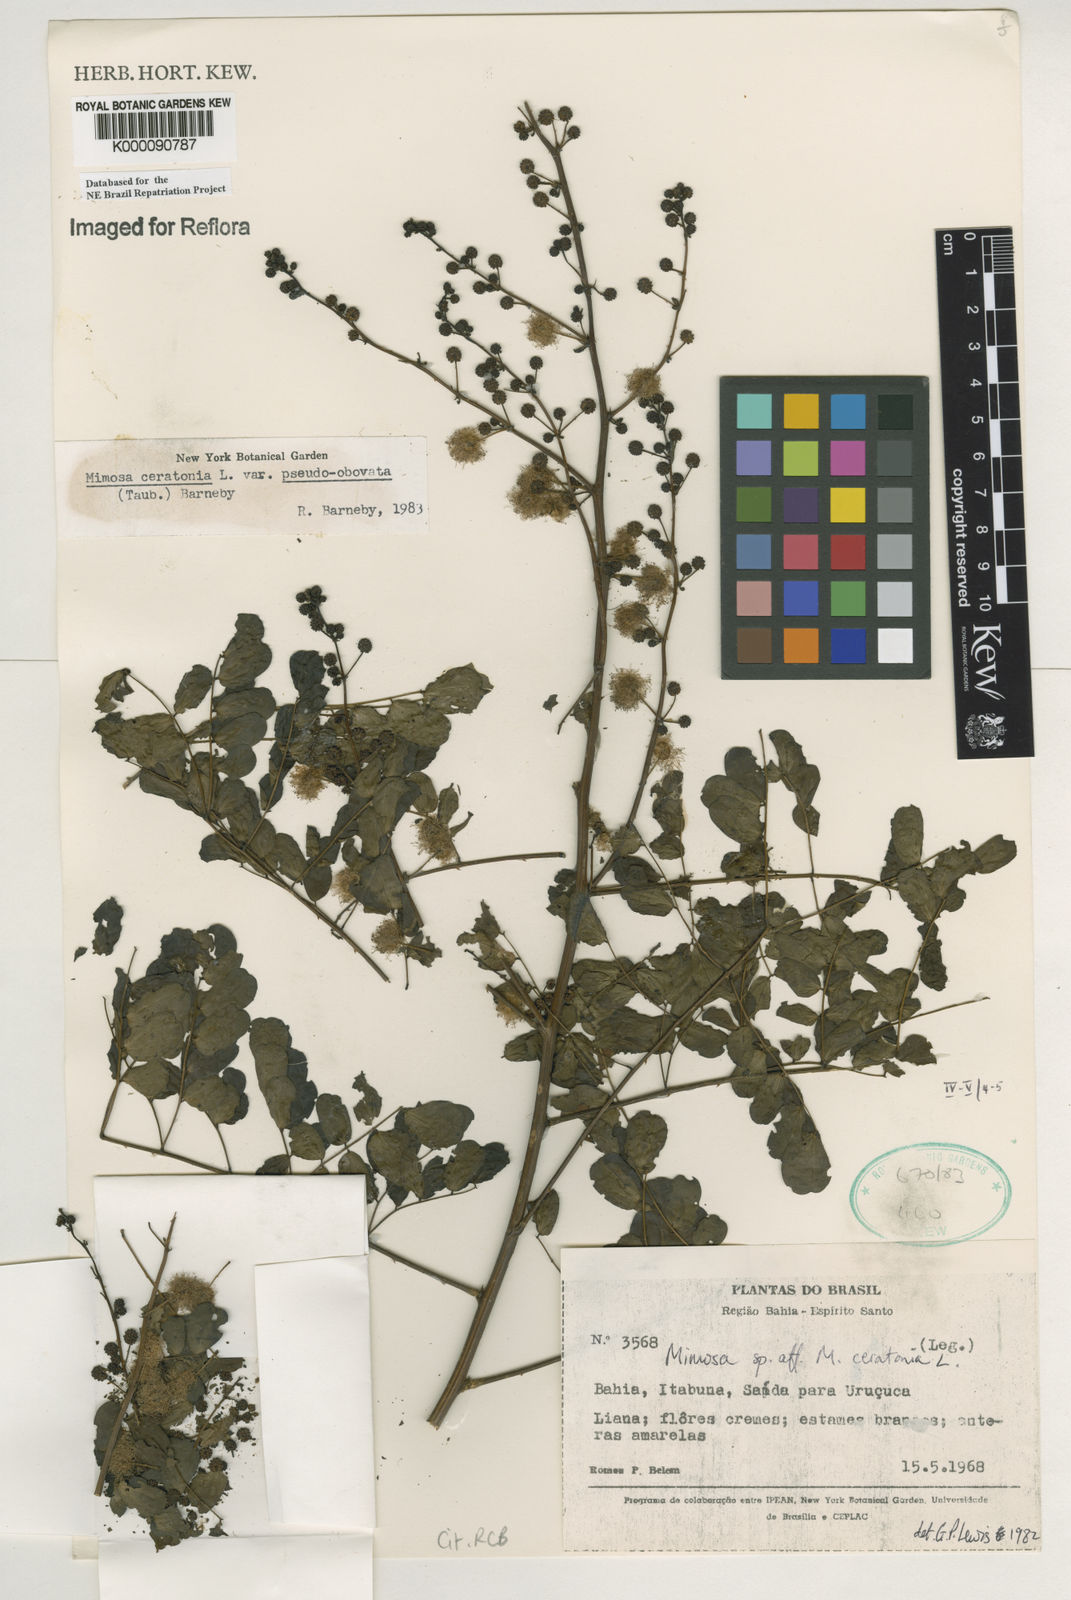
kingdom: Plantae
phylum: Tracheophyta
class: Magnoliopsida
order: Fabales
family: Fabaceae
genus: Mimosa
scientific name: Mimosa ceratonia
